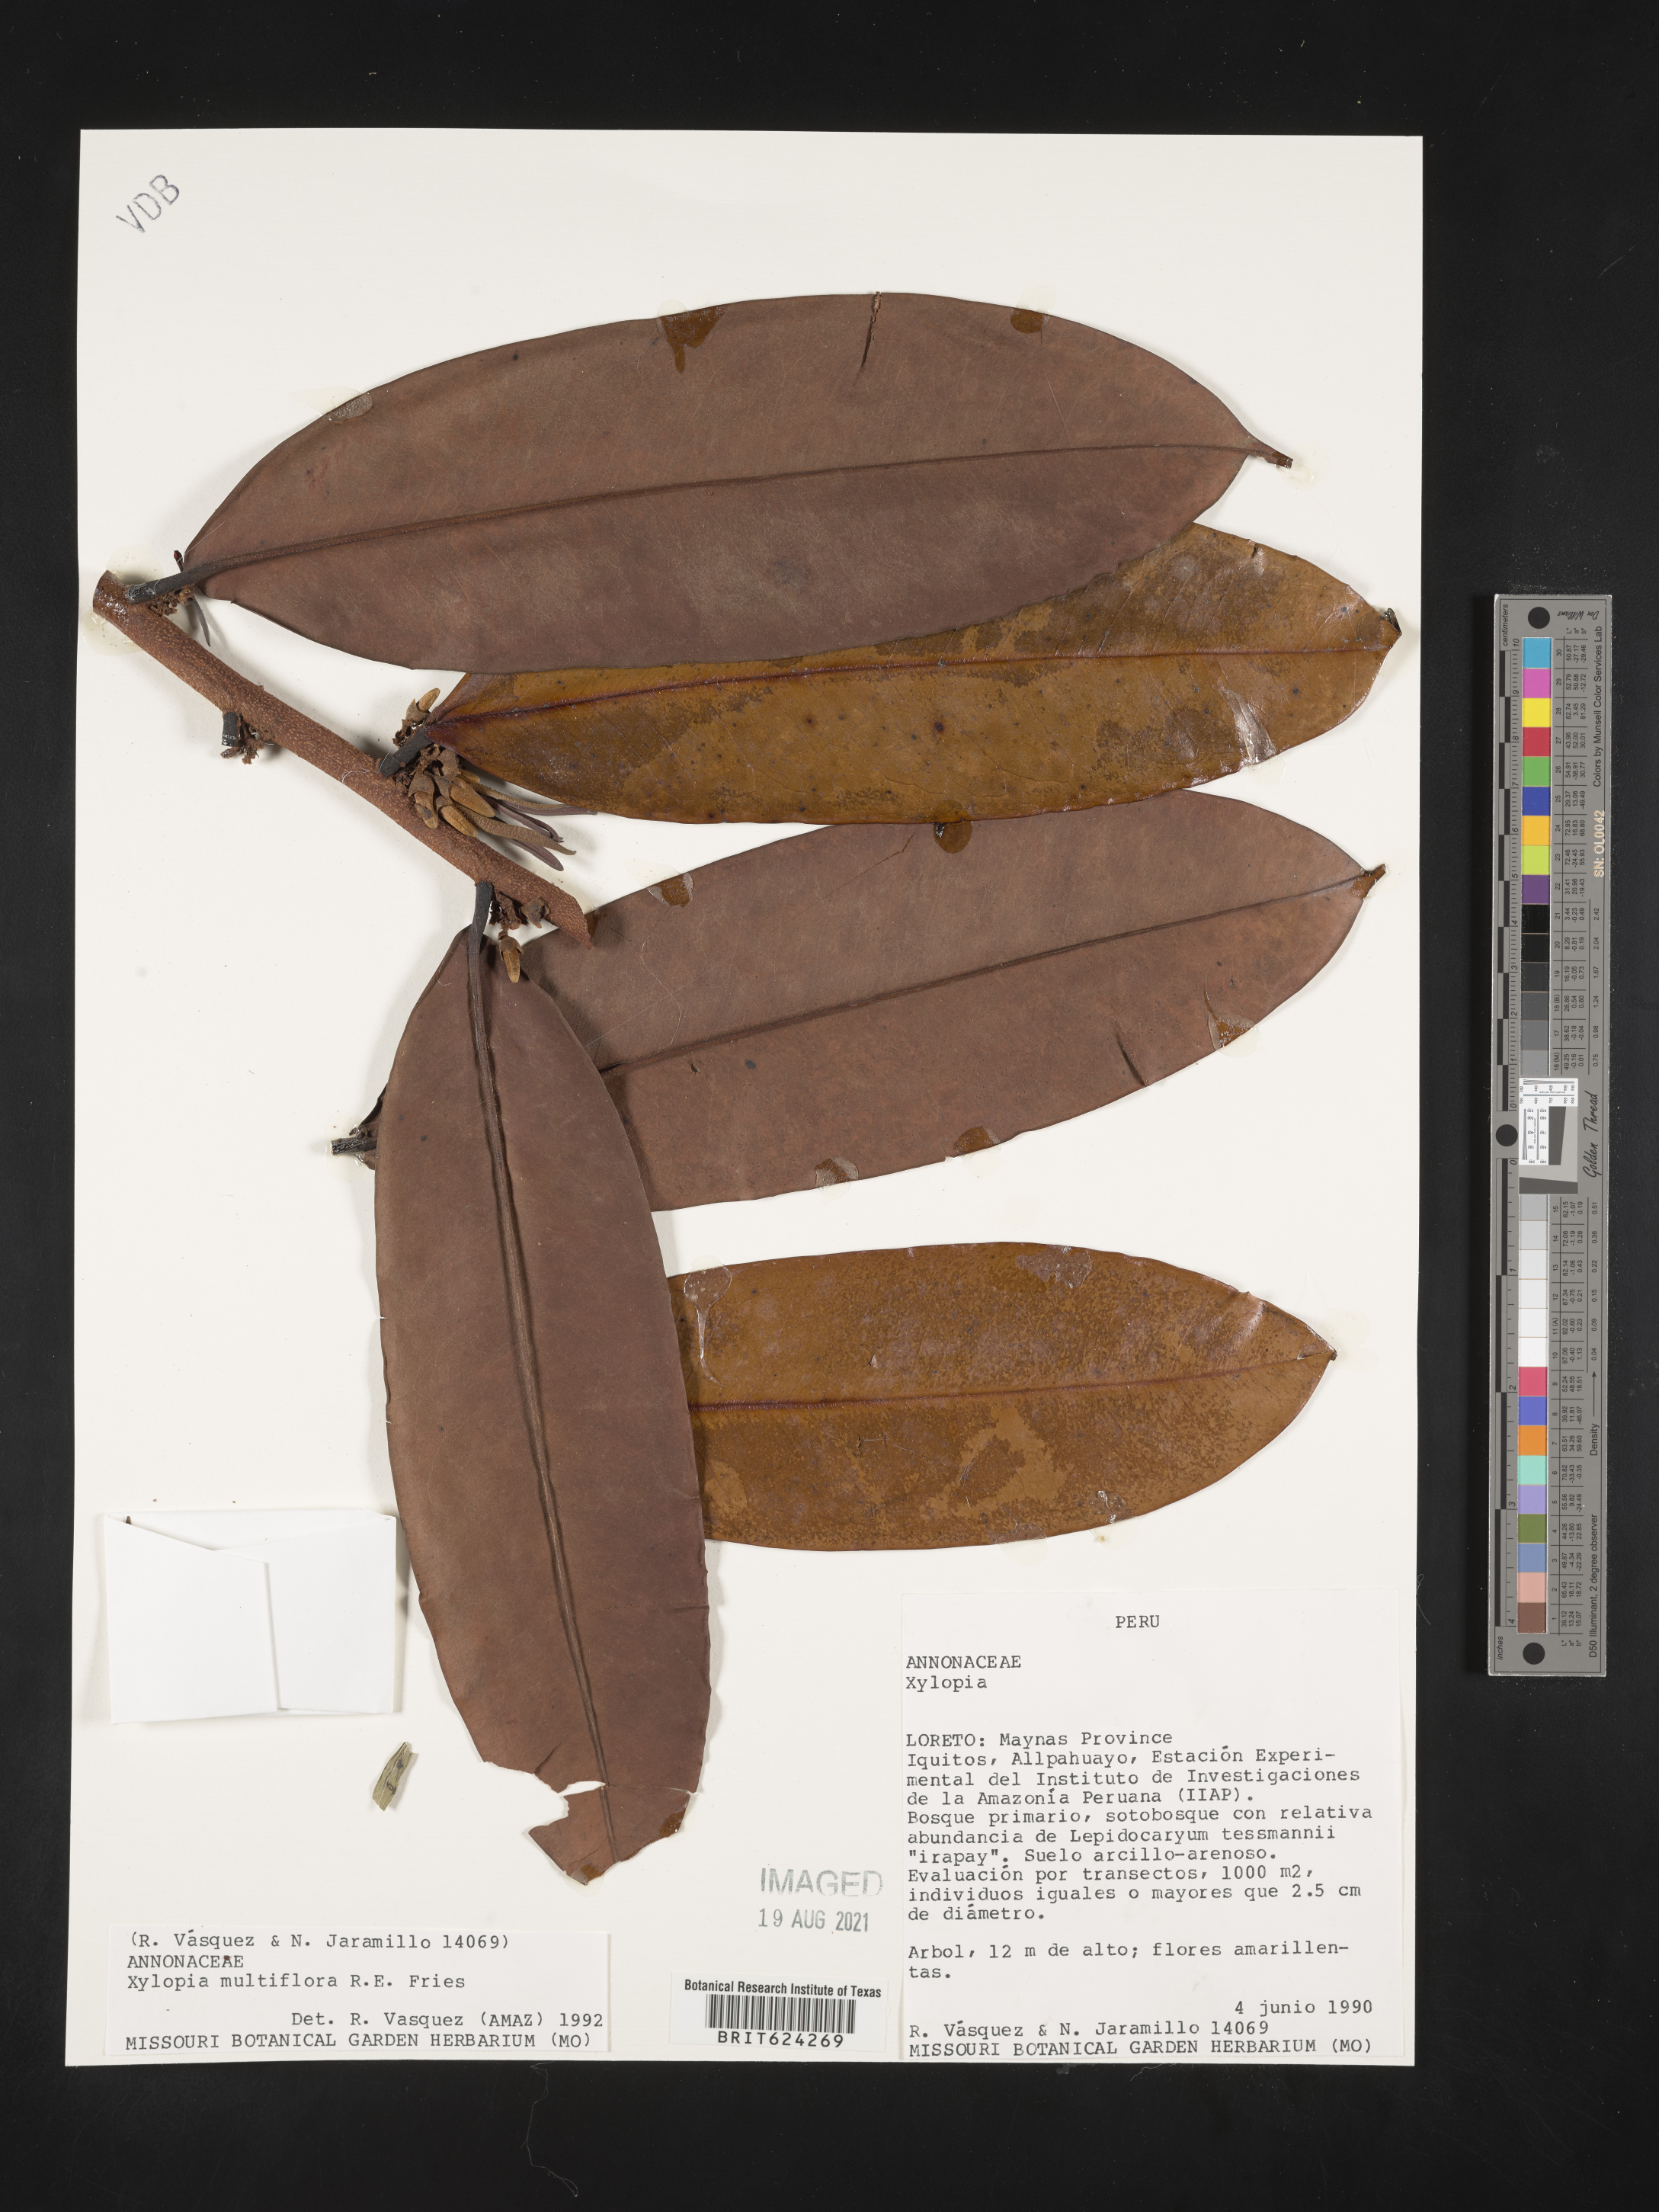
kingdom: Plantae
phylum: Tracheophyta
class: Magnoliopsida
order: Magnoliales
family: Annonaceae
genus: Xylopia
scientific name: Xylopia multiflora
